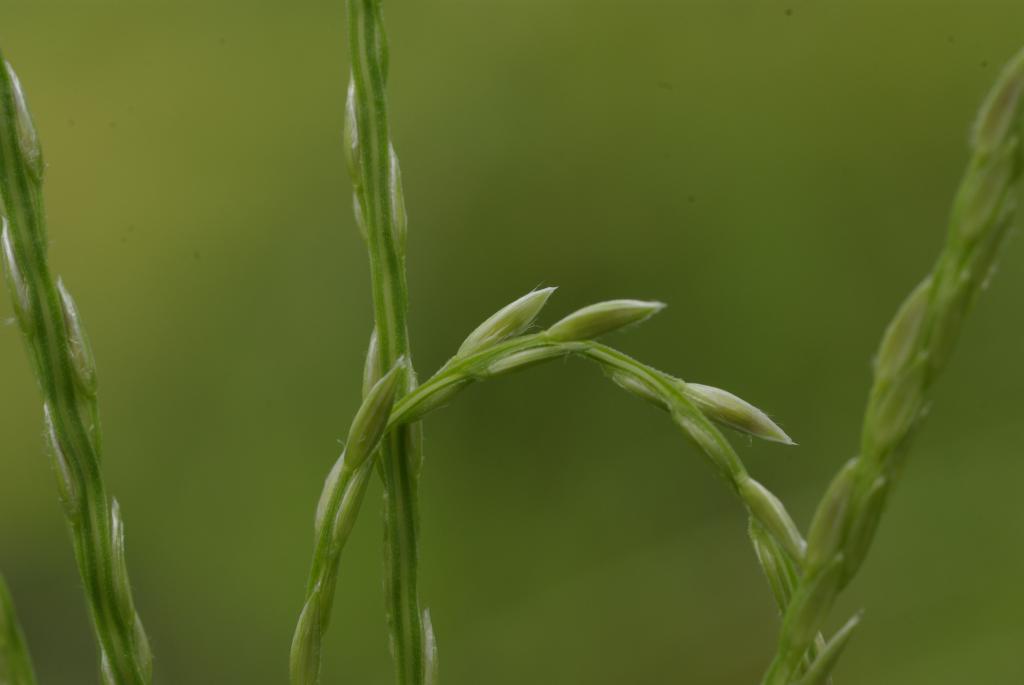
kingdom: Plantae
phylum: Tracheophyta
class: Liliopsida
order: Poales
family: Poaceae
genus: Digitaria
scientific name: Digitaria setigera
